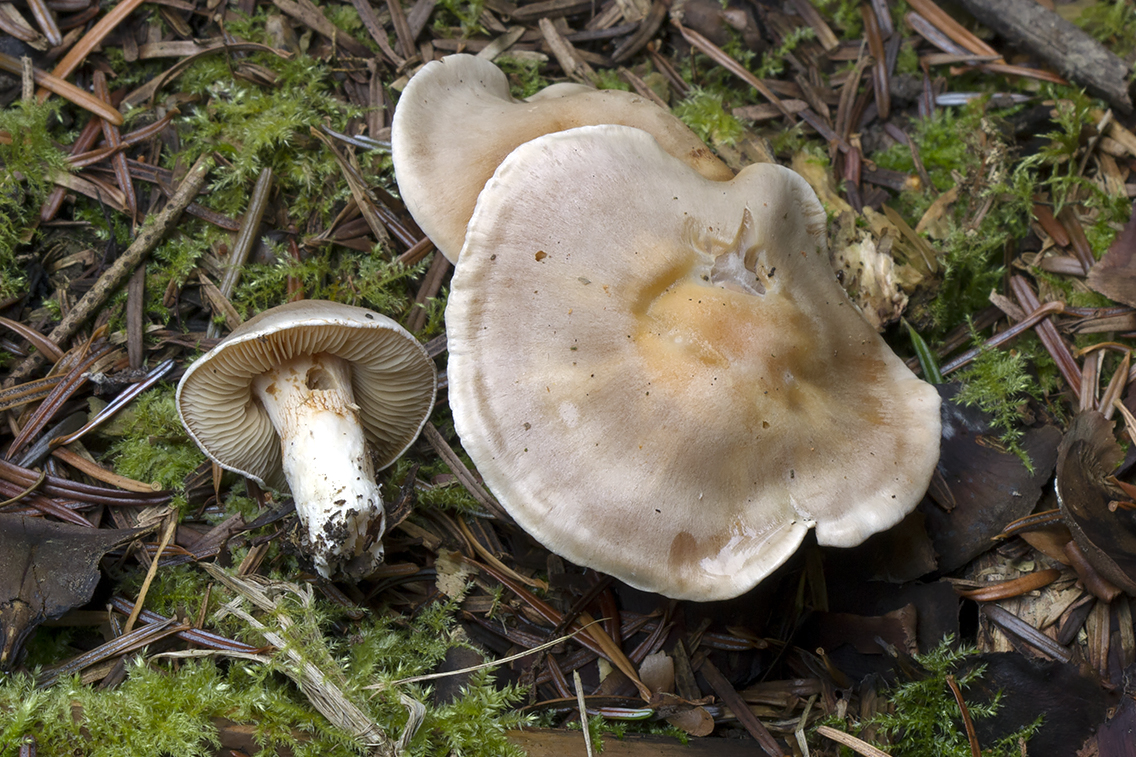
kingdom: Fungi
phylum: Basidiomycota
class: Agaricomycetes
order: Agaricales
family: Cortinariaceae
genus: Thaxterogaster
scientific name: Thaxterogaster leucoluteolus
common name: isabella slørhat
